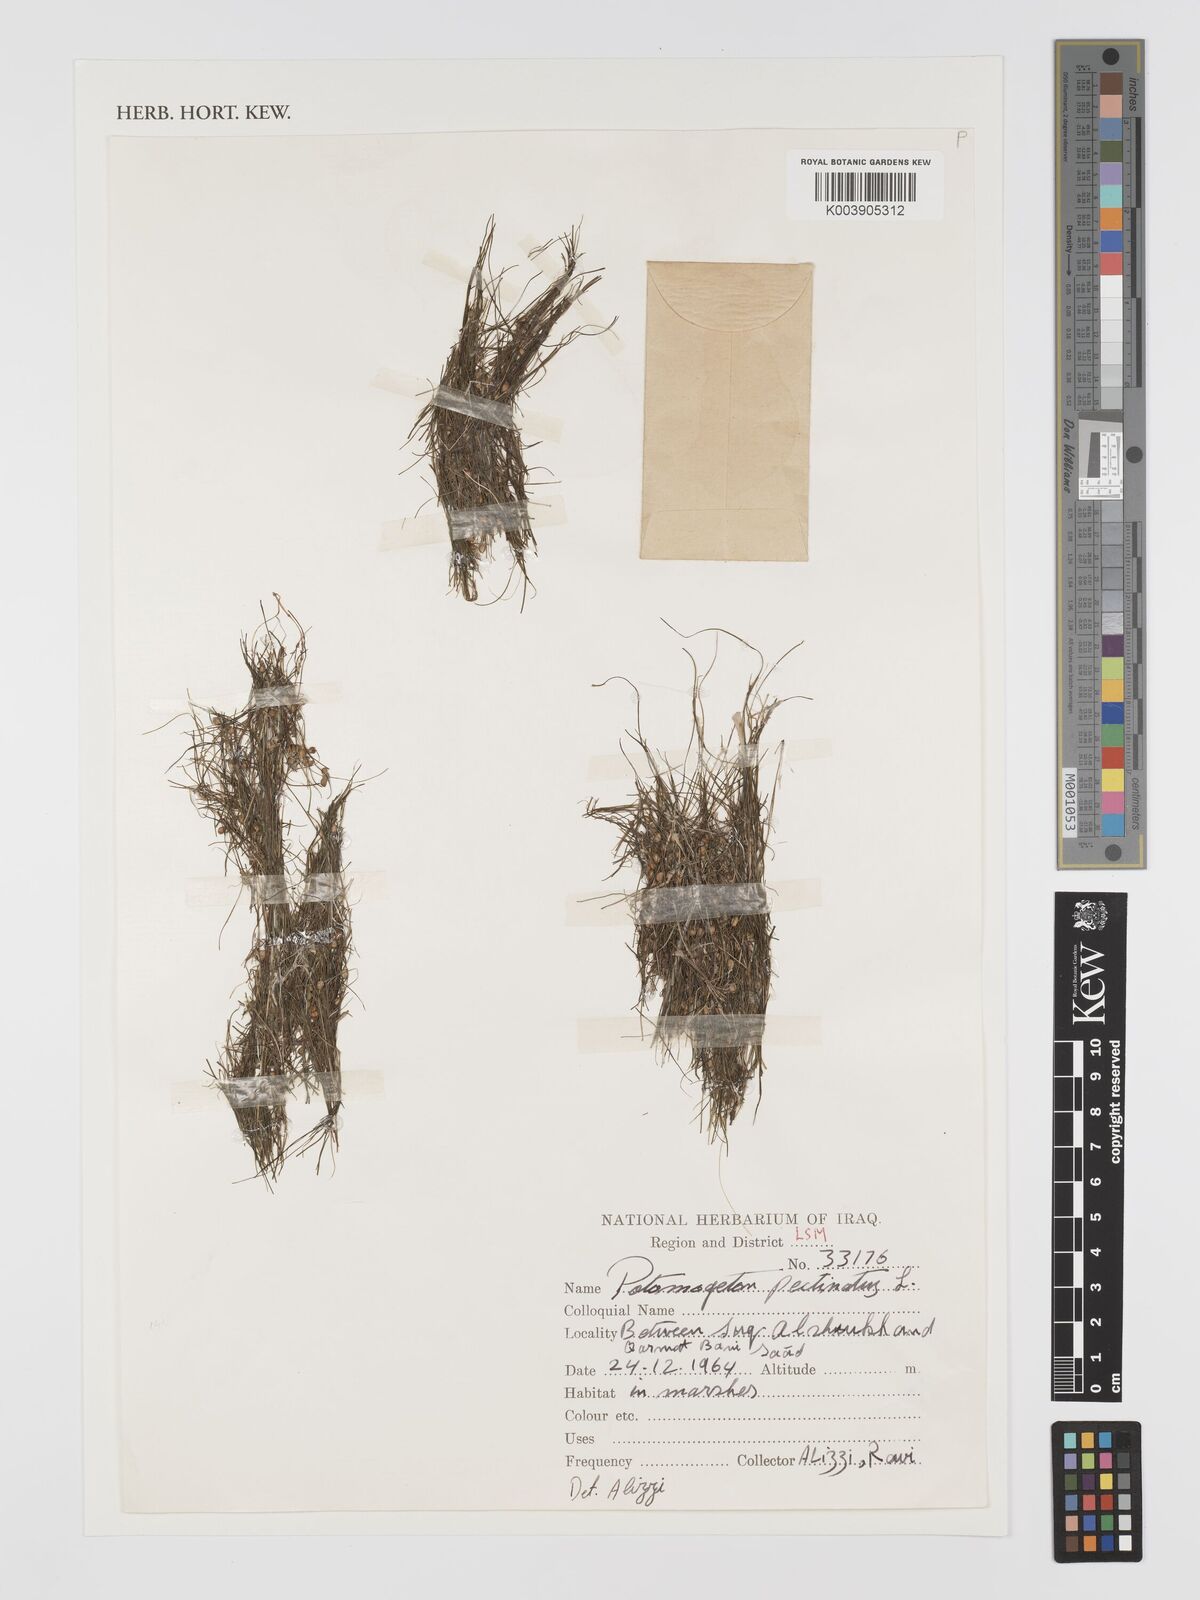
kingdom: Plantae
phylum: Tracheophyta
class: Liliopsida
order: Alismatales
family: Potamogetonaceae
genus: Stuckenia
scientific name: Stuckenia pectinata
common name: Sago pondweed
